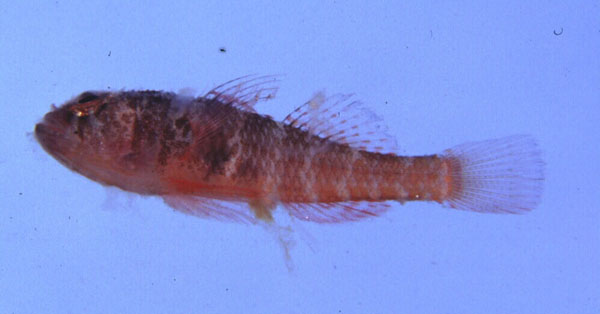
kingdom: Animalia
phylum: Chordata
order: Perciformes
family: Gobiidae
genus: Trimma
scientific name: Trimma mendelssohni
